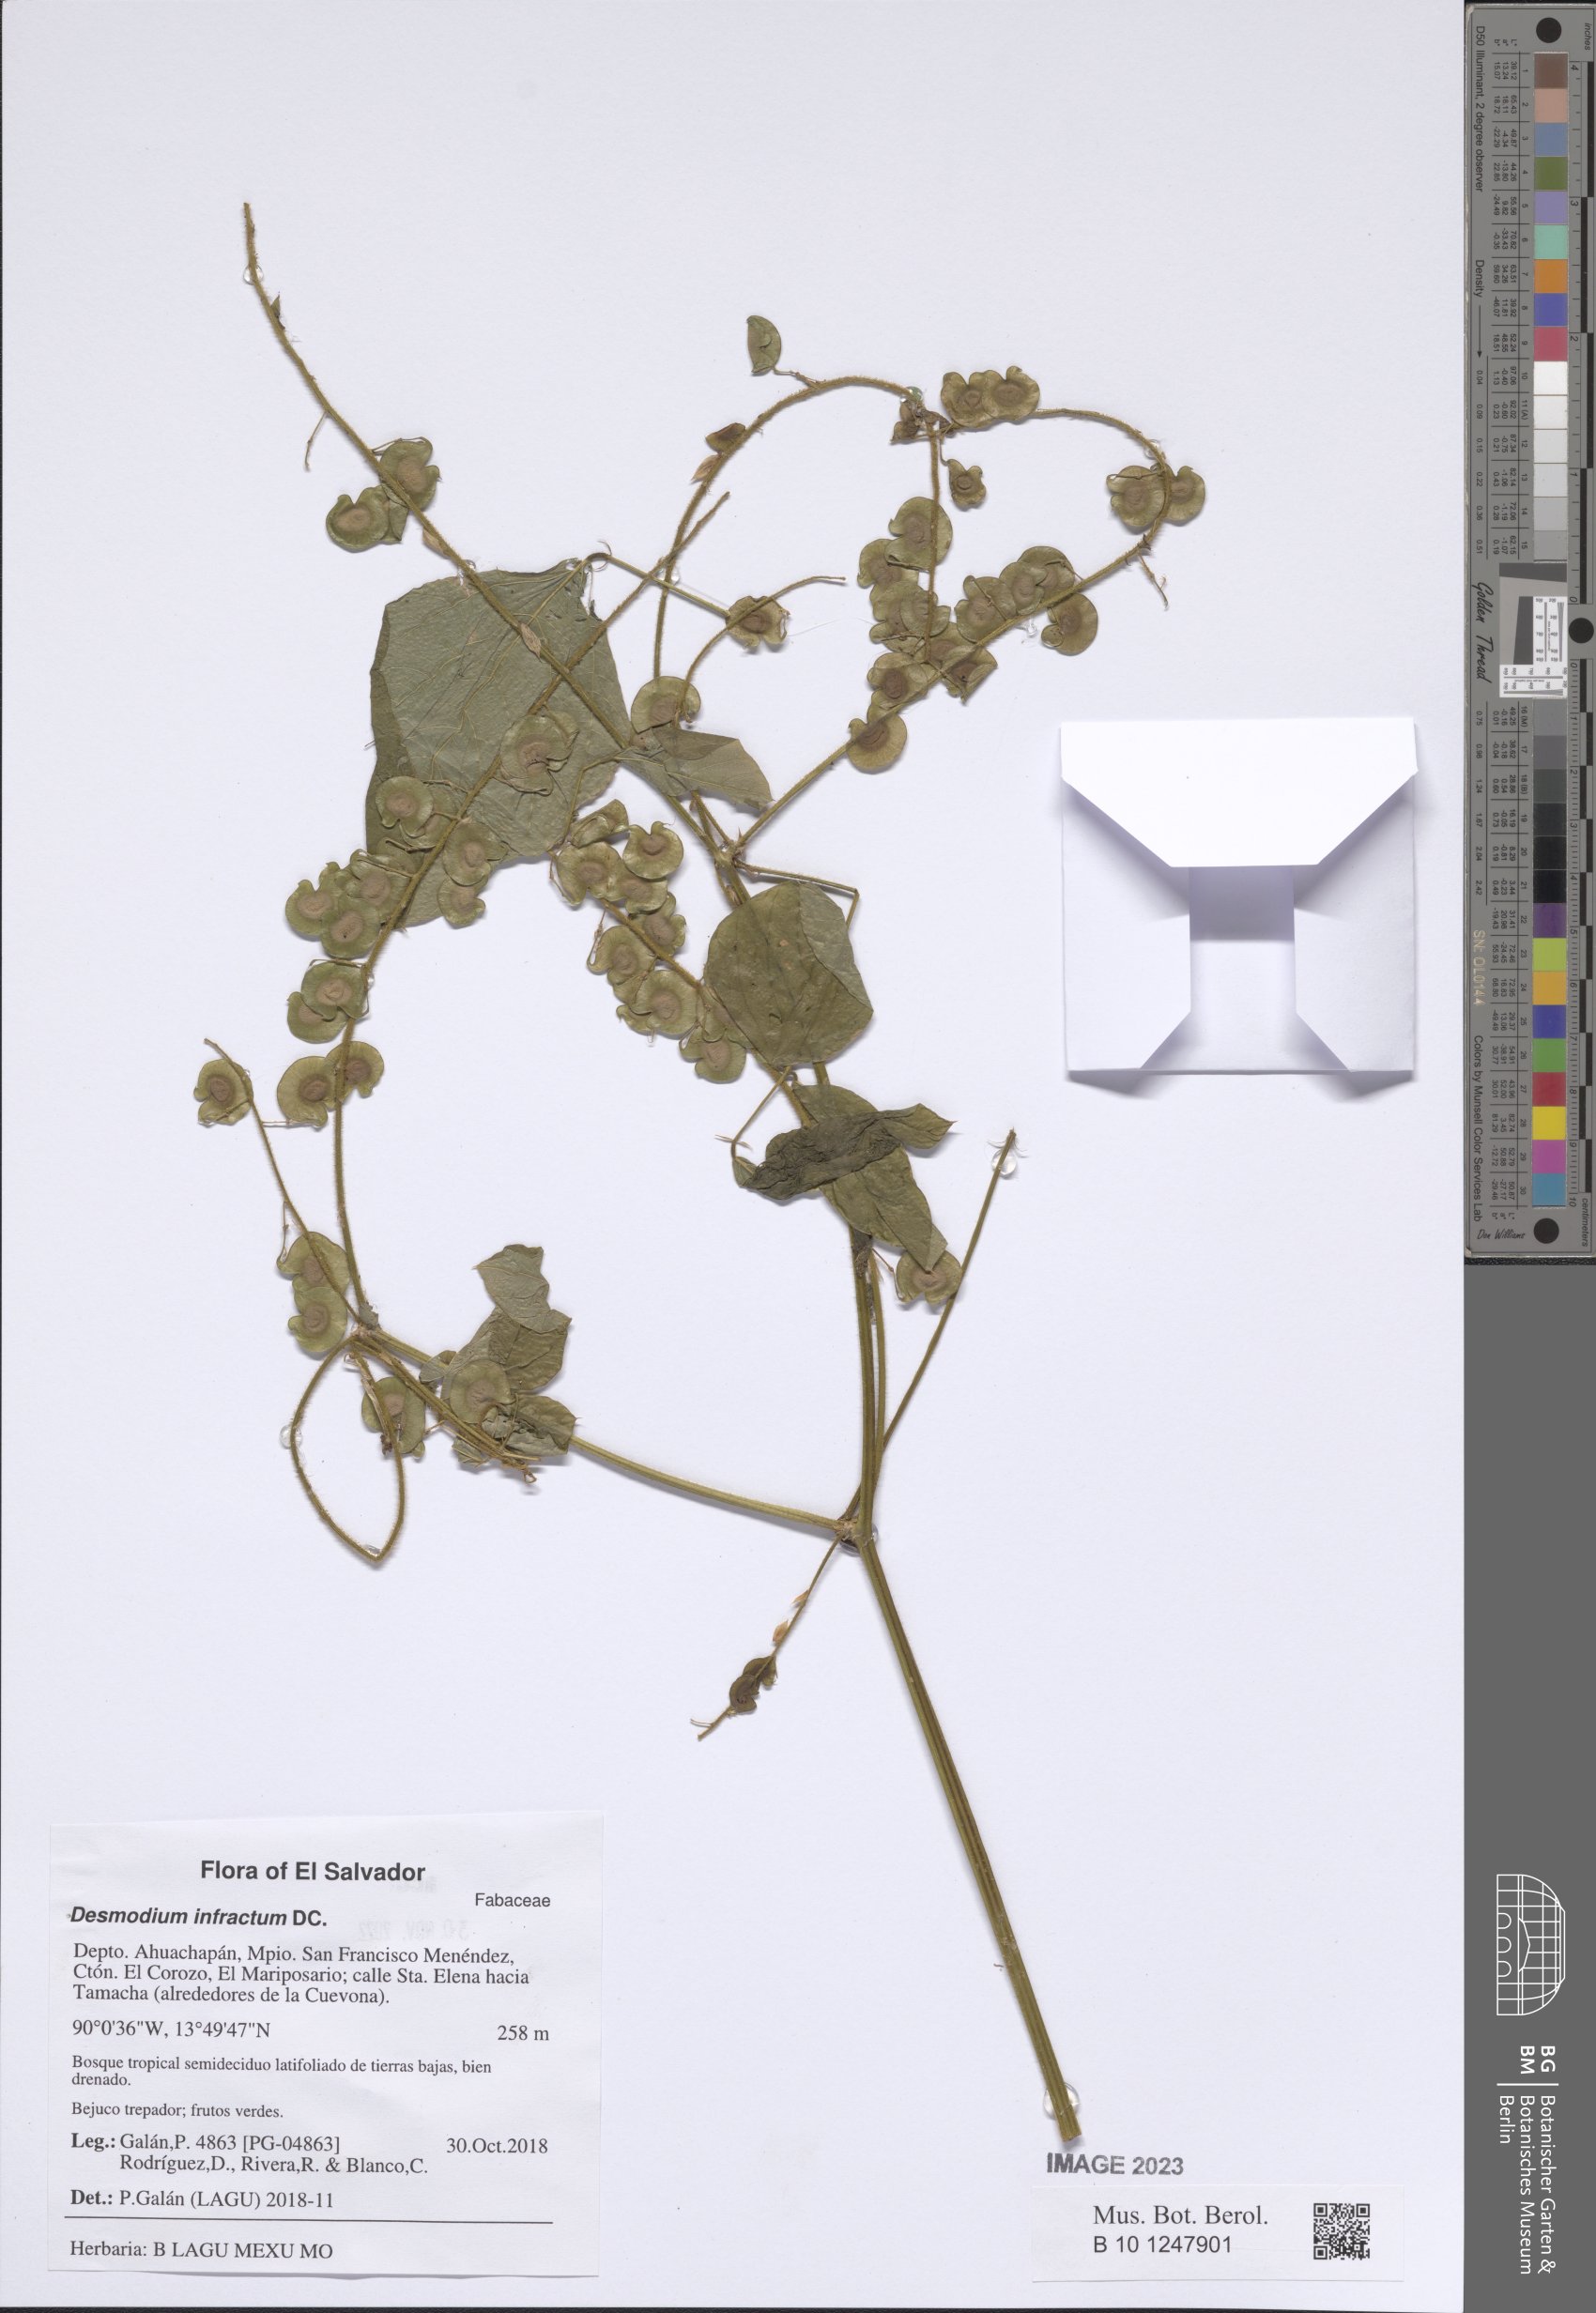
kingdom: Plantae
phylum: Tracheophyta
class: Magnoliopsida
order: Fabales
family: Fabaceae
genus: Desmodium
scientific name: Desmodium infractum
